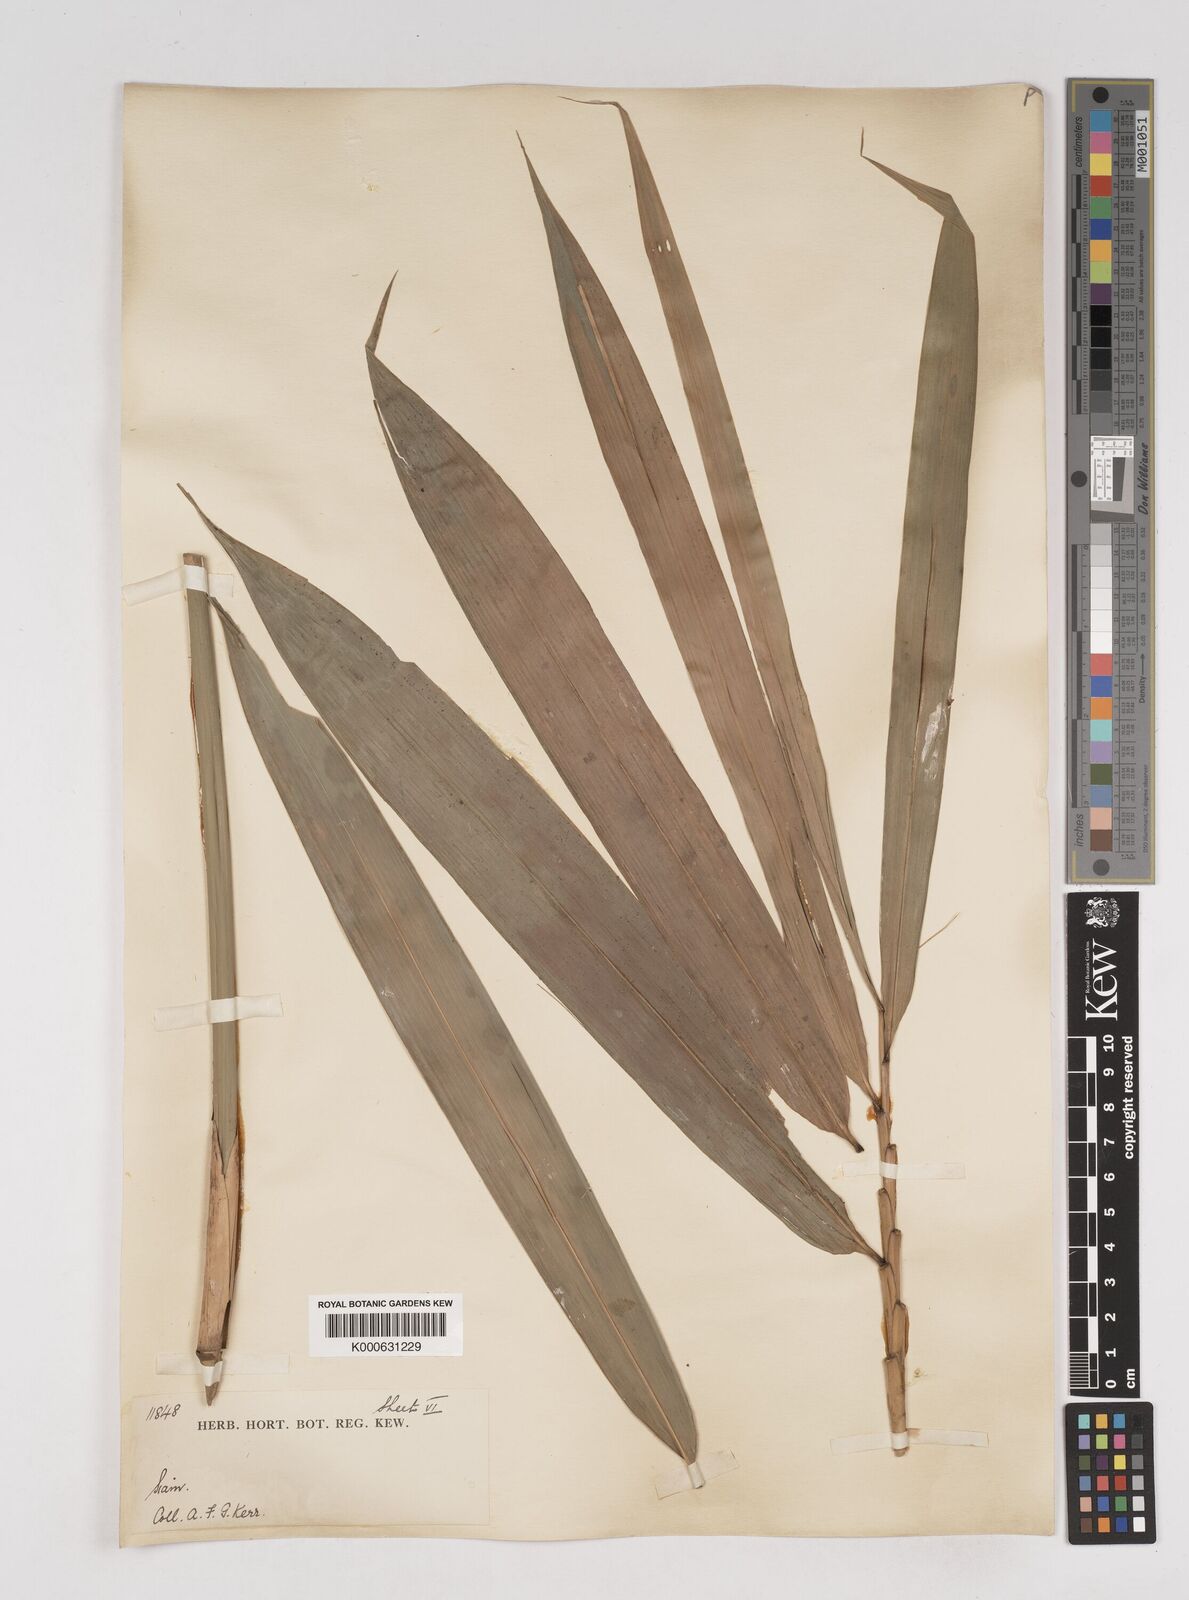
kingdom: Plantae
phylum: Tracheophyta
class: Liliopsida
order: Poales
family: Poaceae
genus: Gigantochloa
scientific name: Gigantochloa
